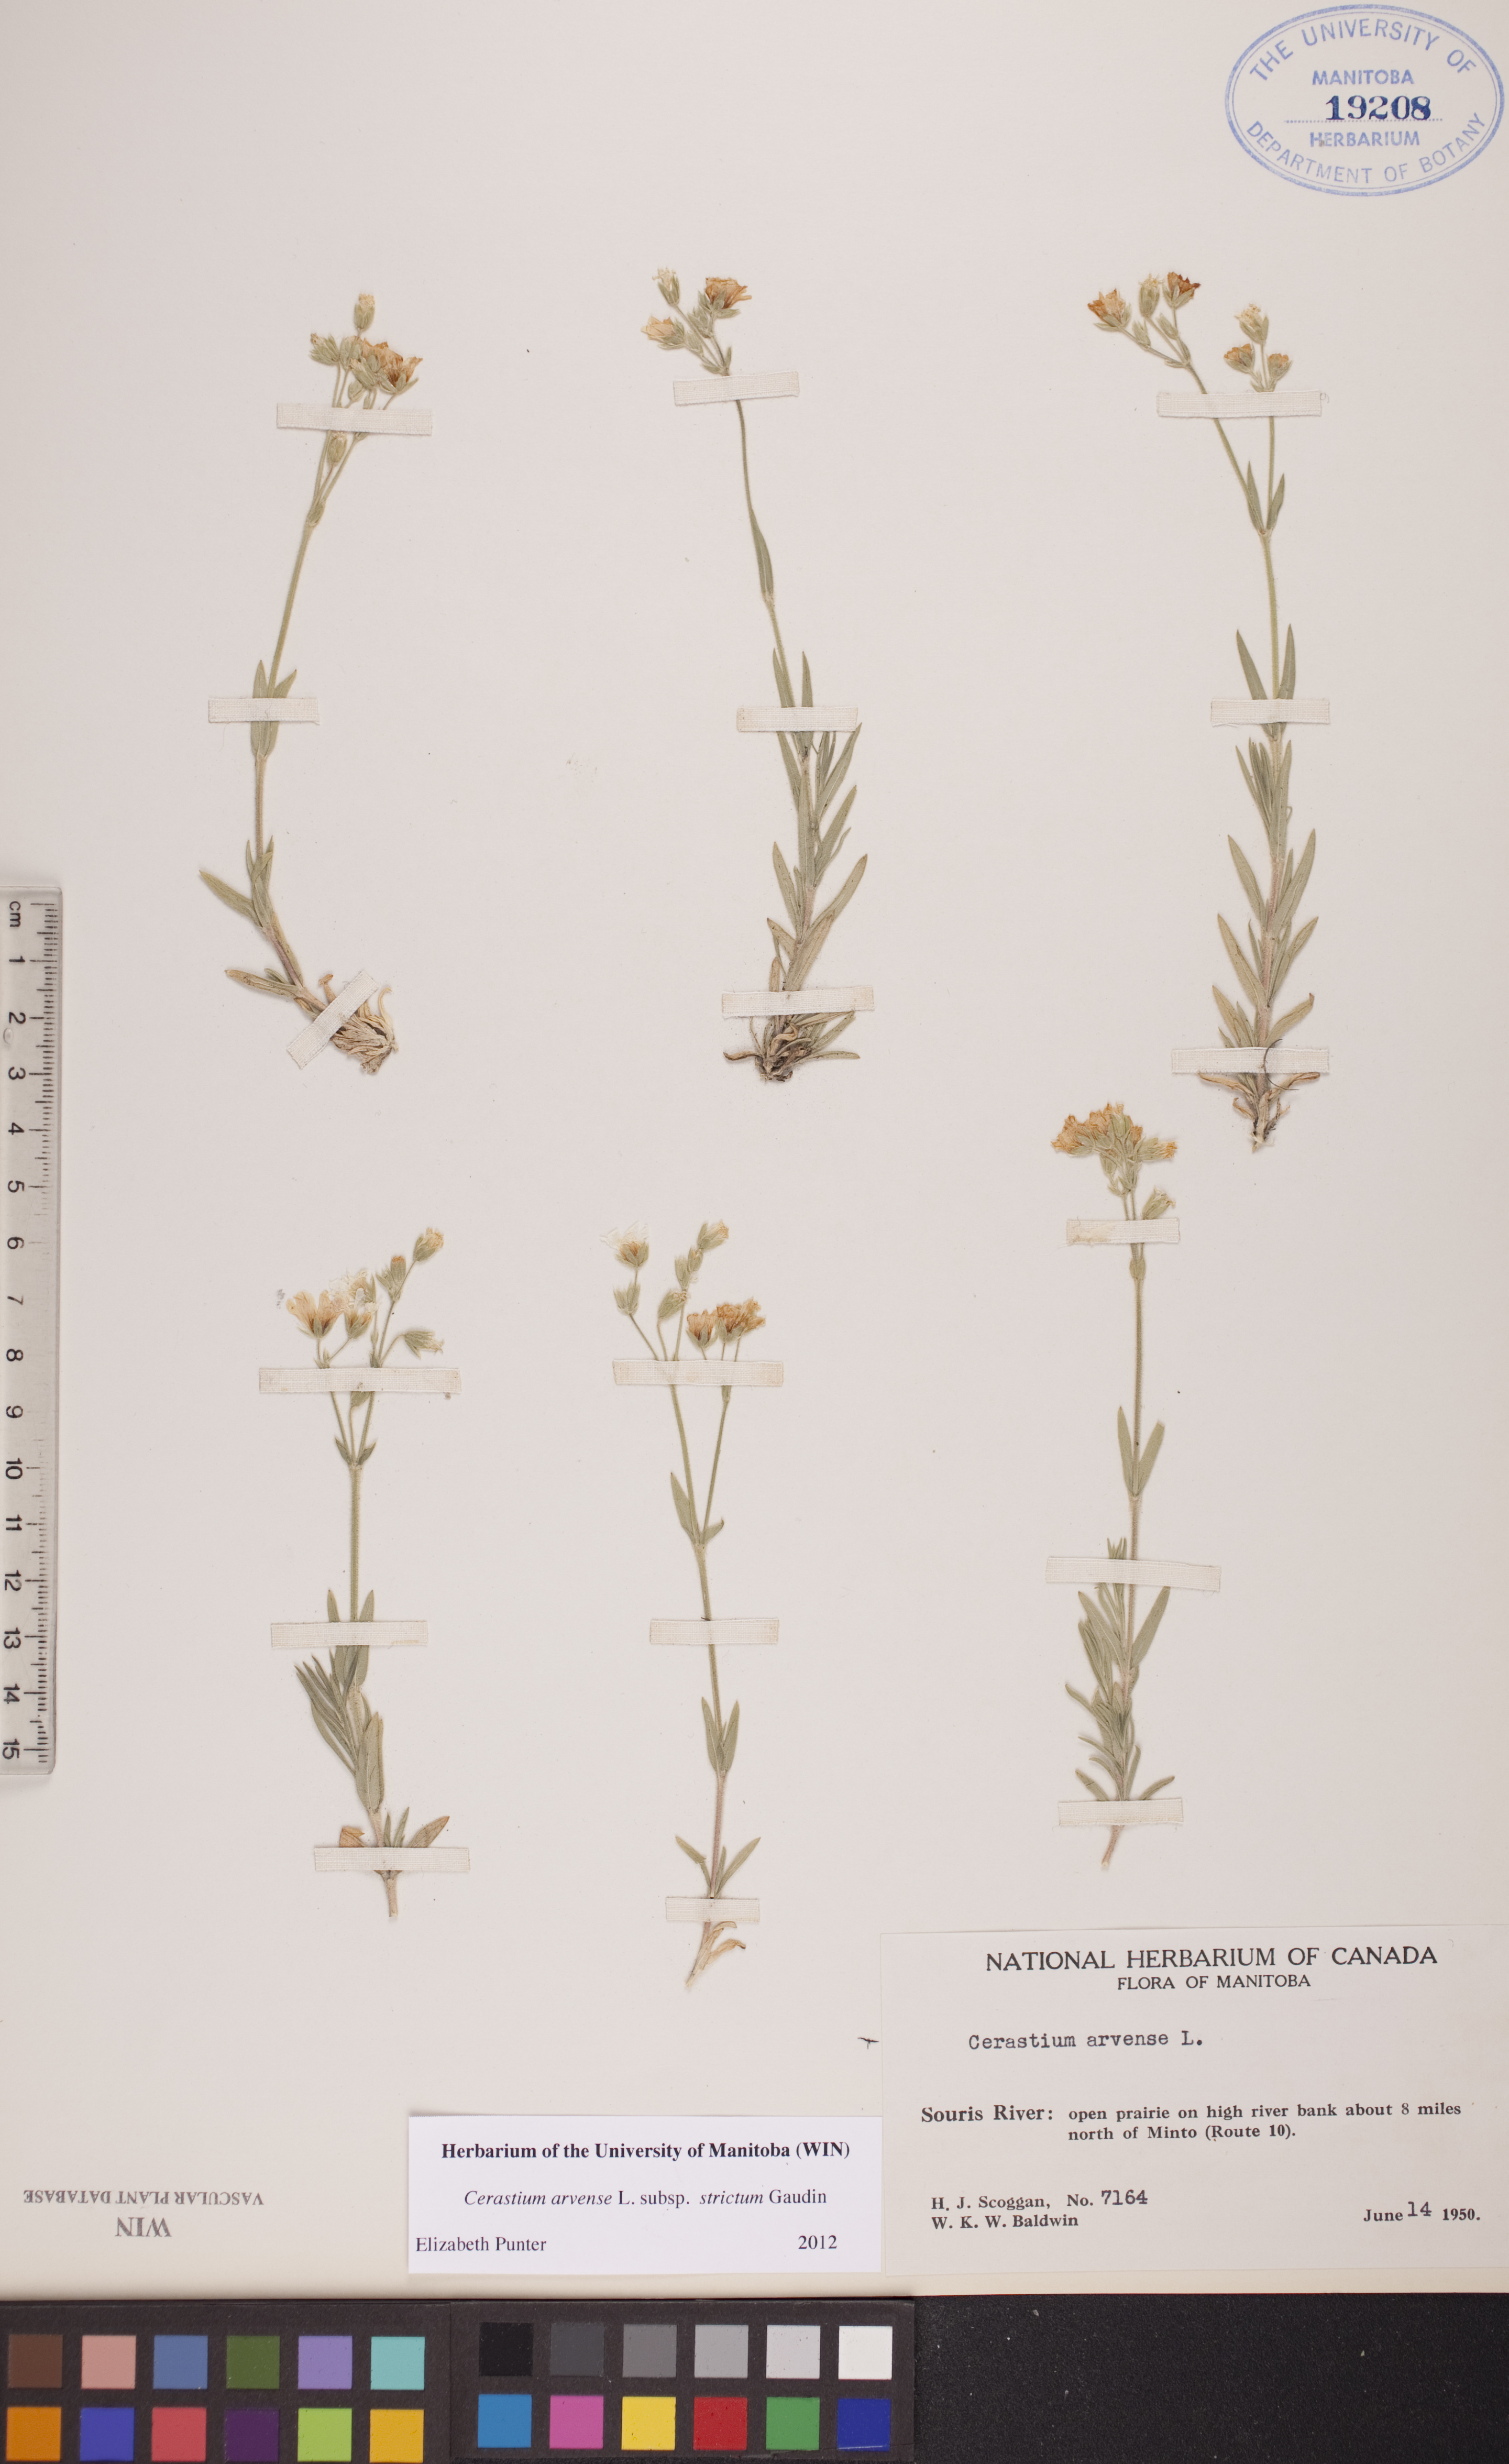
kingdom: Plantae
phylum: Tracheophyta
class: Magnoliopsida
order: Caryophyllales
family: Caryophyllaceae
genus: Cerastium
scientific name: Cerastium elongatum
